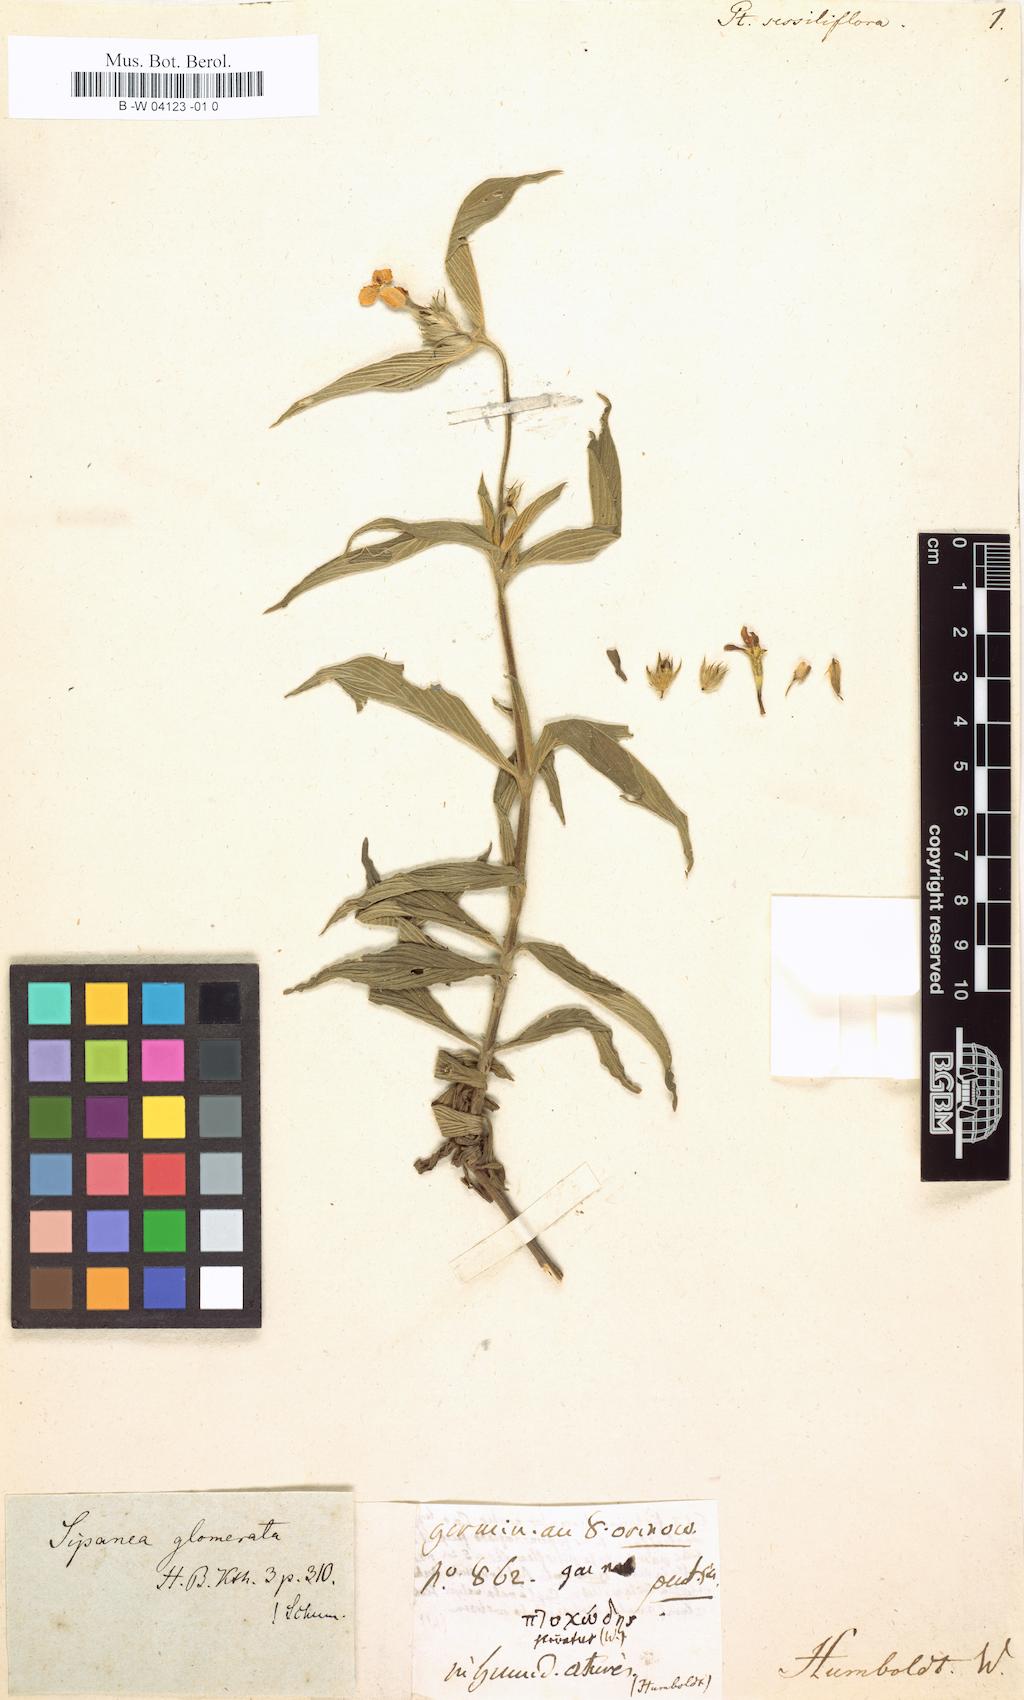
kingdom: Plantae
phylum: Tracheophyta
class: Magnoliopsida
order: Gentianales
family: Rubiaceae
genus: Sipanea
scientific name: Sipanea glomerata
